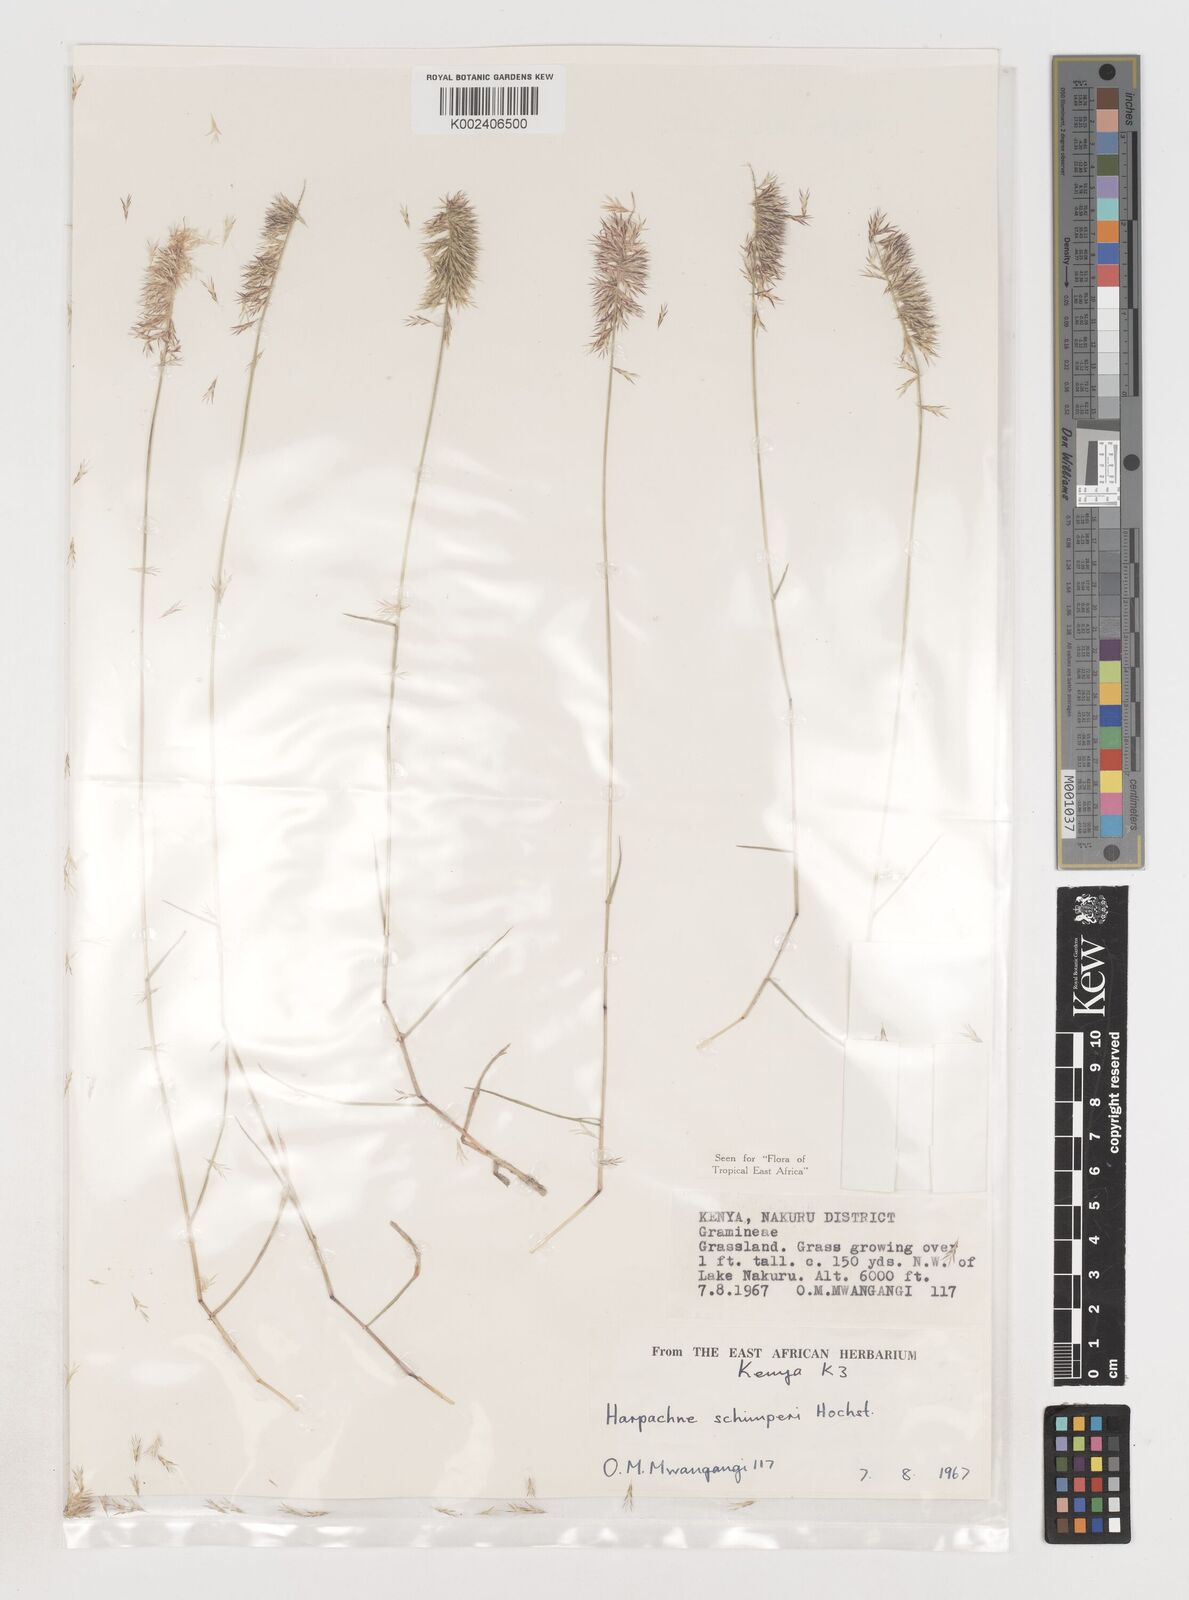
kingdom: Plantae
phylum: Tracheophyta
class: Liliopsida
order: Poales
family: Poaceae
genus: Harpachne
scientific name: Harpachne schimperi
